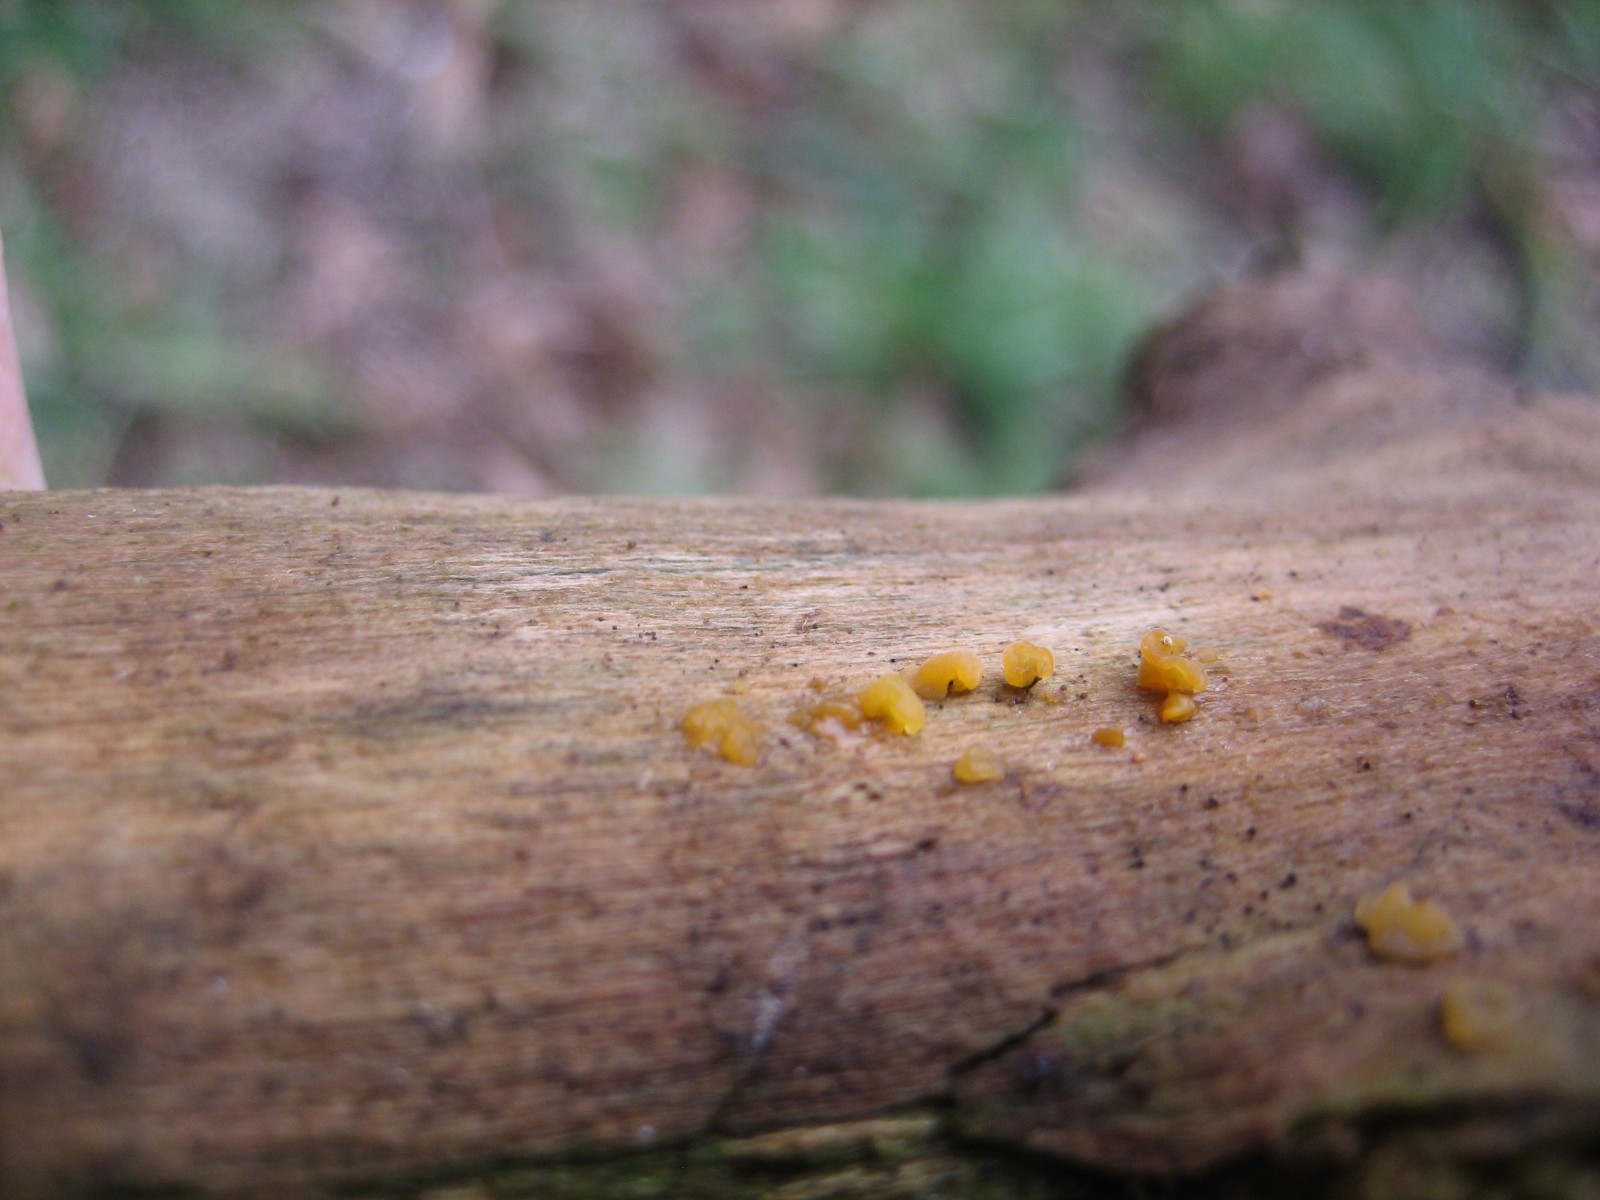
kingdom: Fungi
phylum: Basidiomycota
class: Dacrymycetes
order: Dacrymycetales
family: Dacrymycetaceae
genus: Dacrymyces
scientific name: Dacrymyces capitatus
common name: stilket tåresvamp
